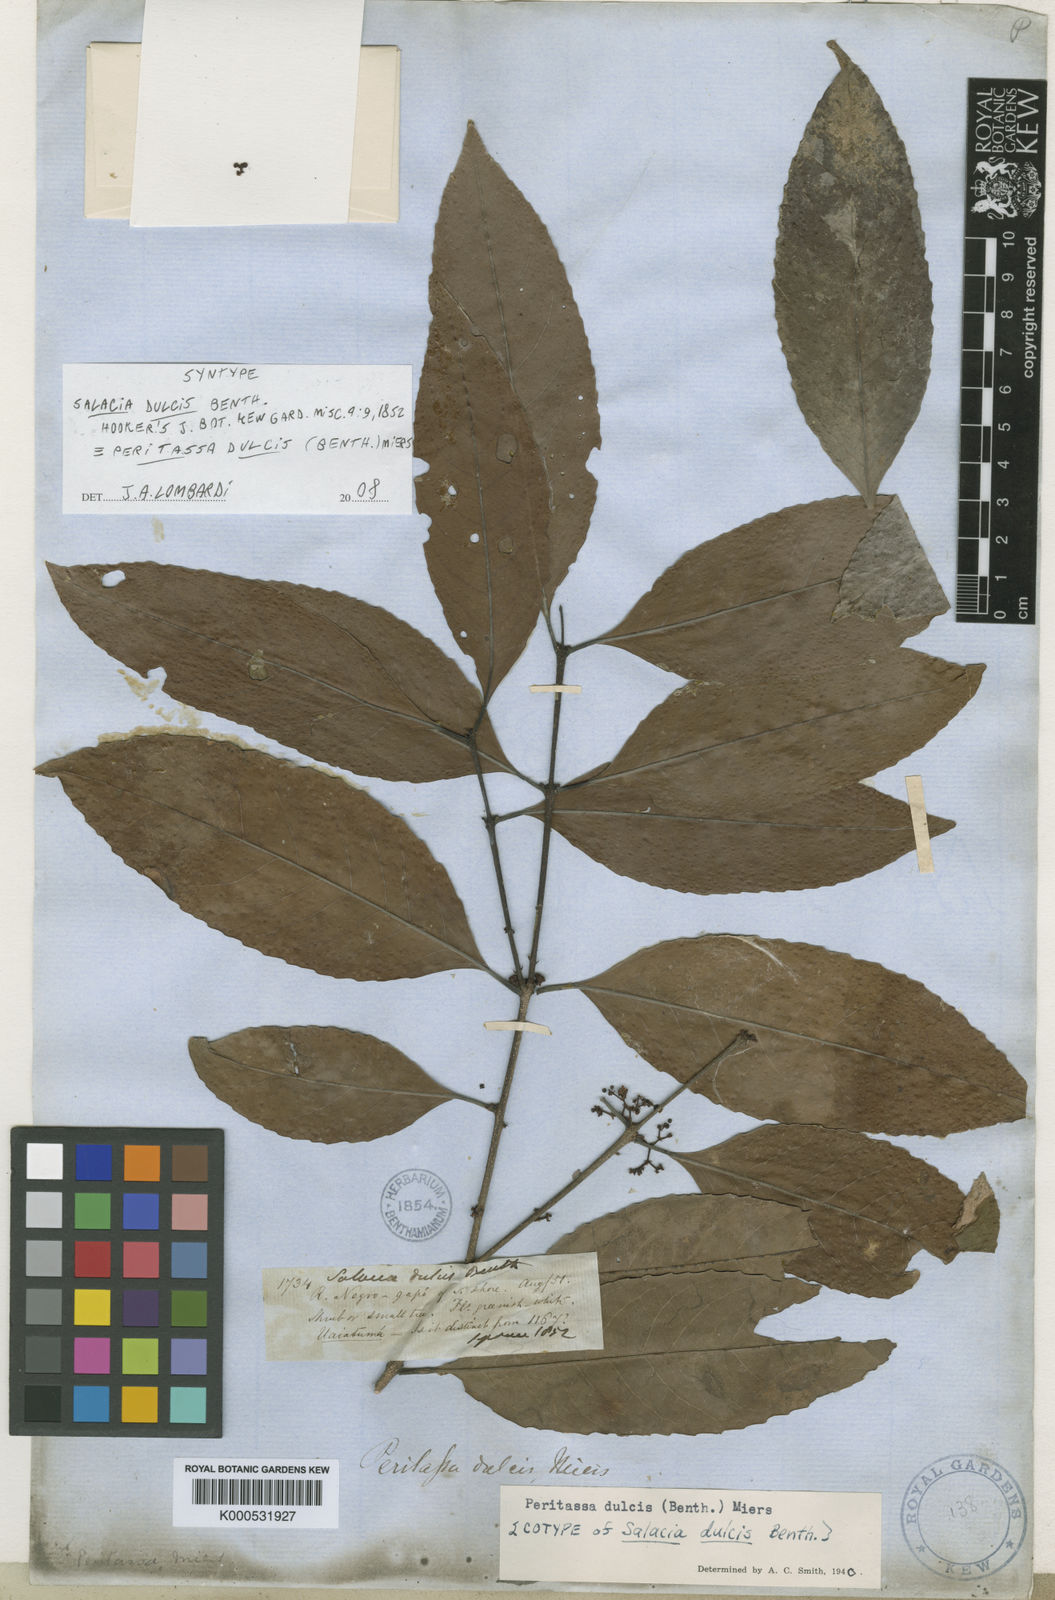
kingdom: Plantae
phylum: Tracheophyta
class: Magnoliopsida
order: Celastrales
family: Celastraceae
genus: Peritassa
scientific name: Peritassa dulcis
